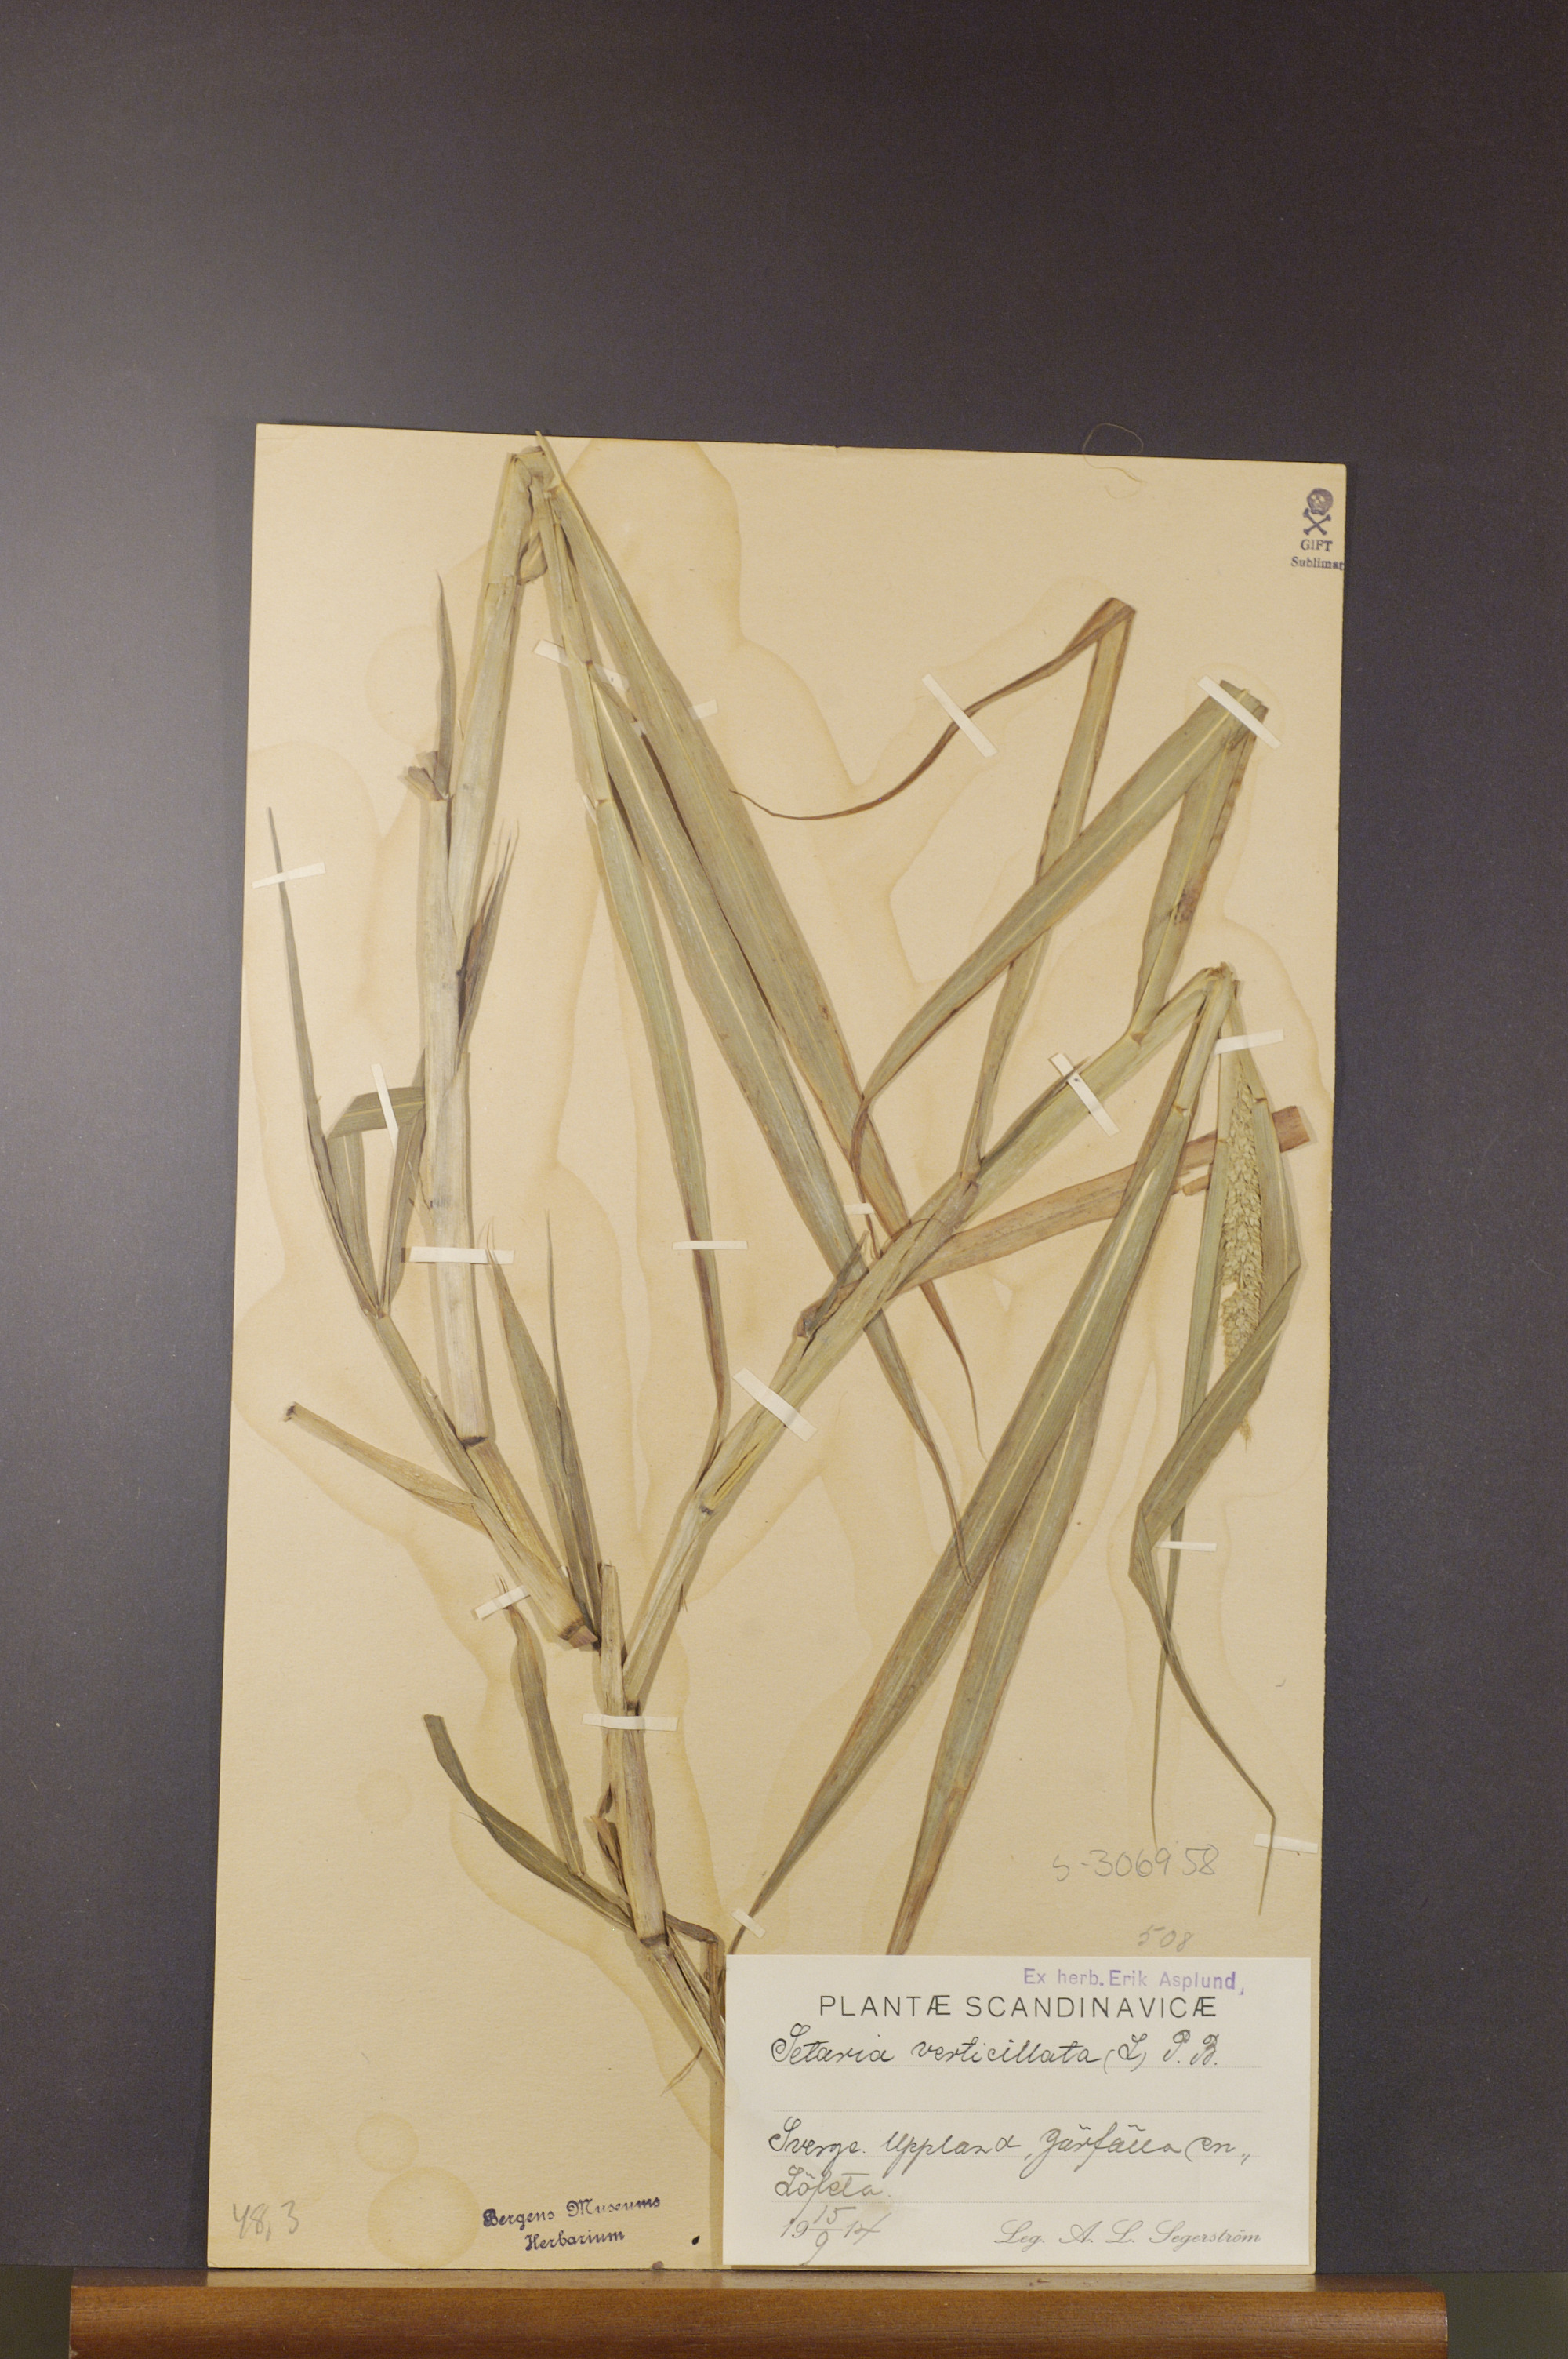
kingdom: Plantae
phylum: Tracheophyta
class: Liliopsida
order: Poales
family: Poaceae
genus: Setaria
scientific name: Setaria verticillata
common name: Hooked bristlegrass
